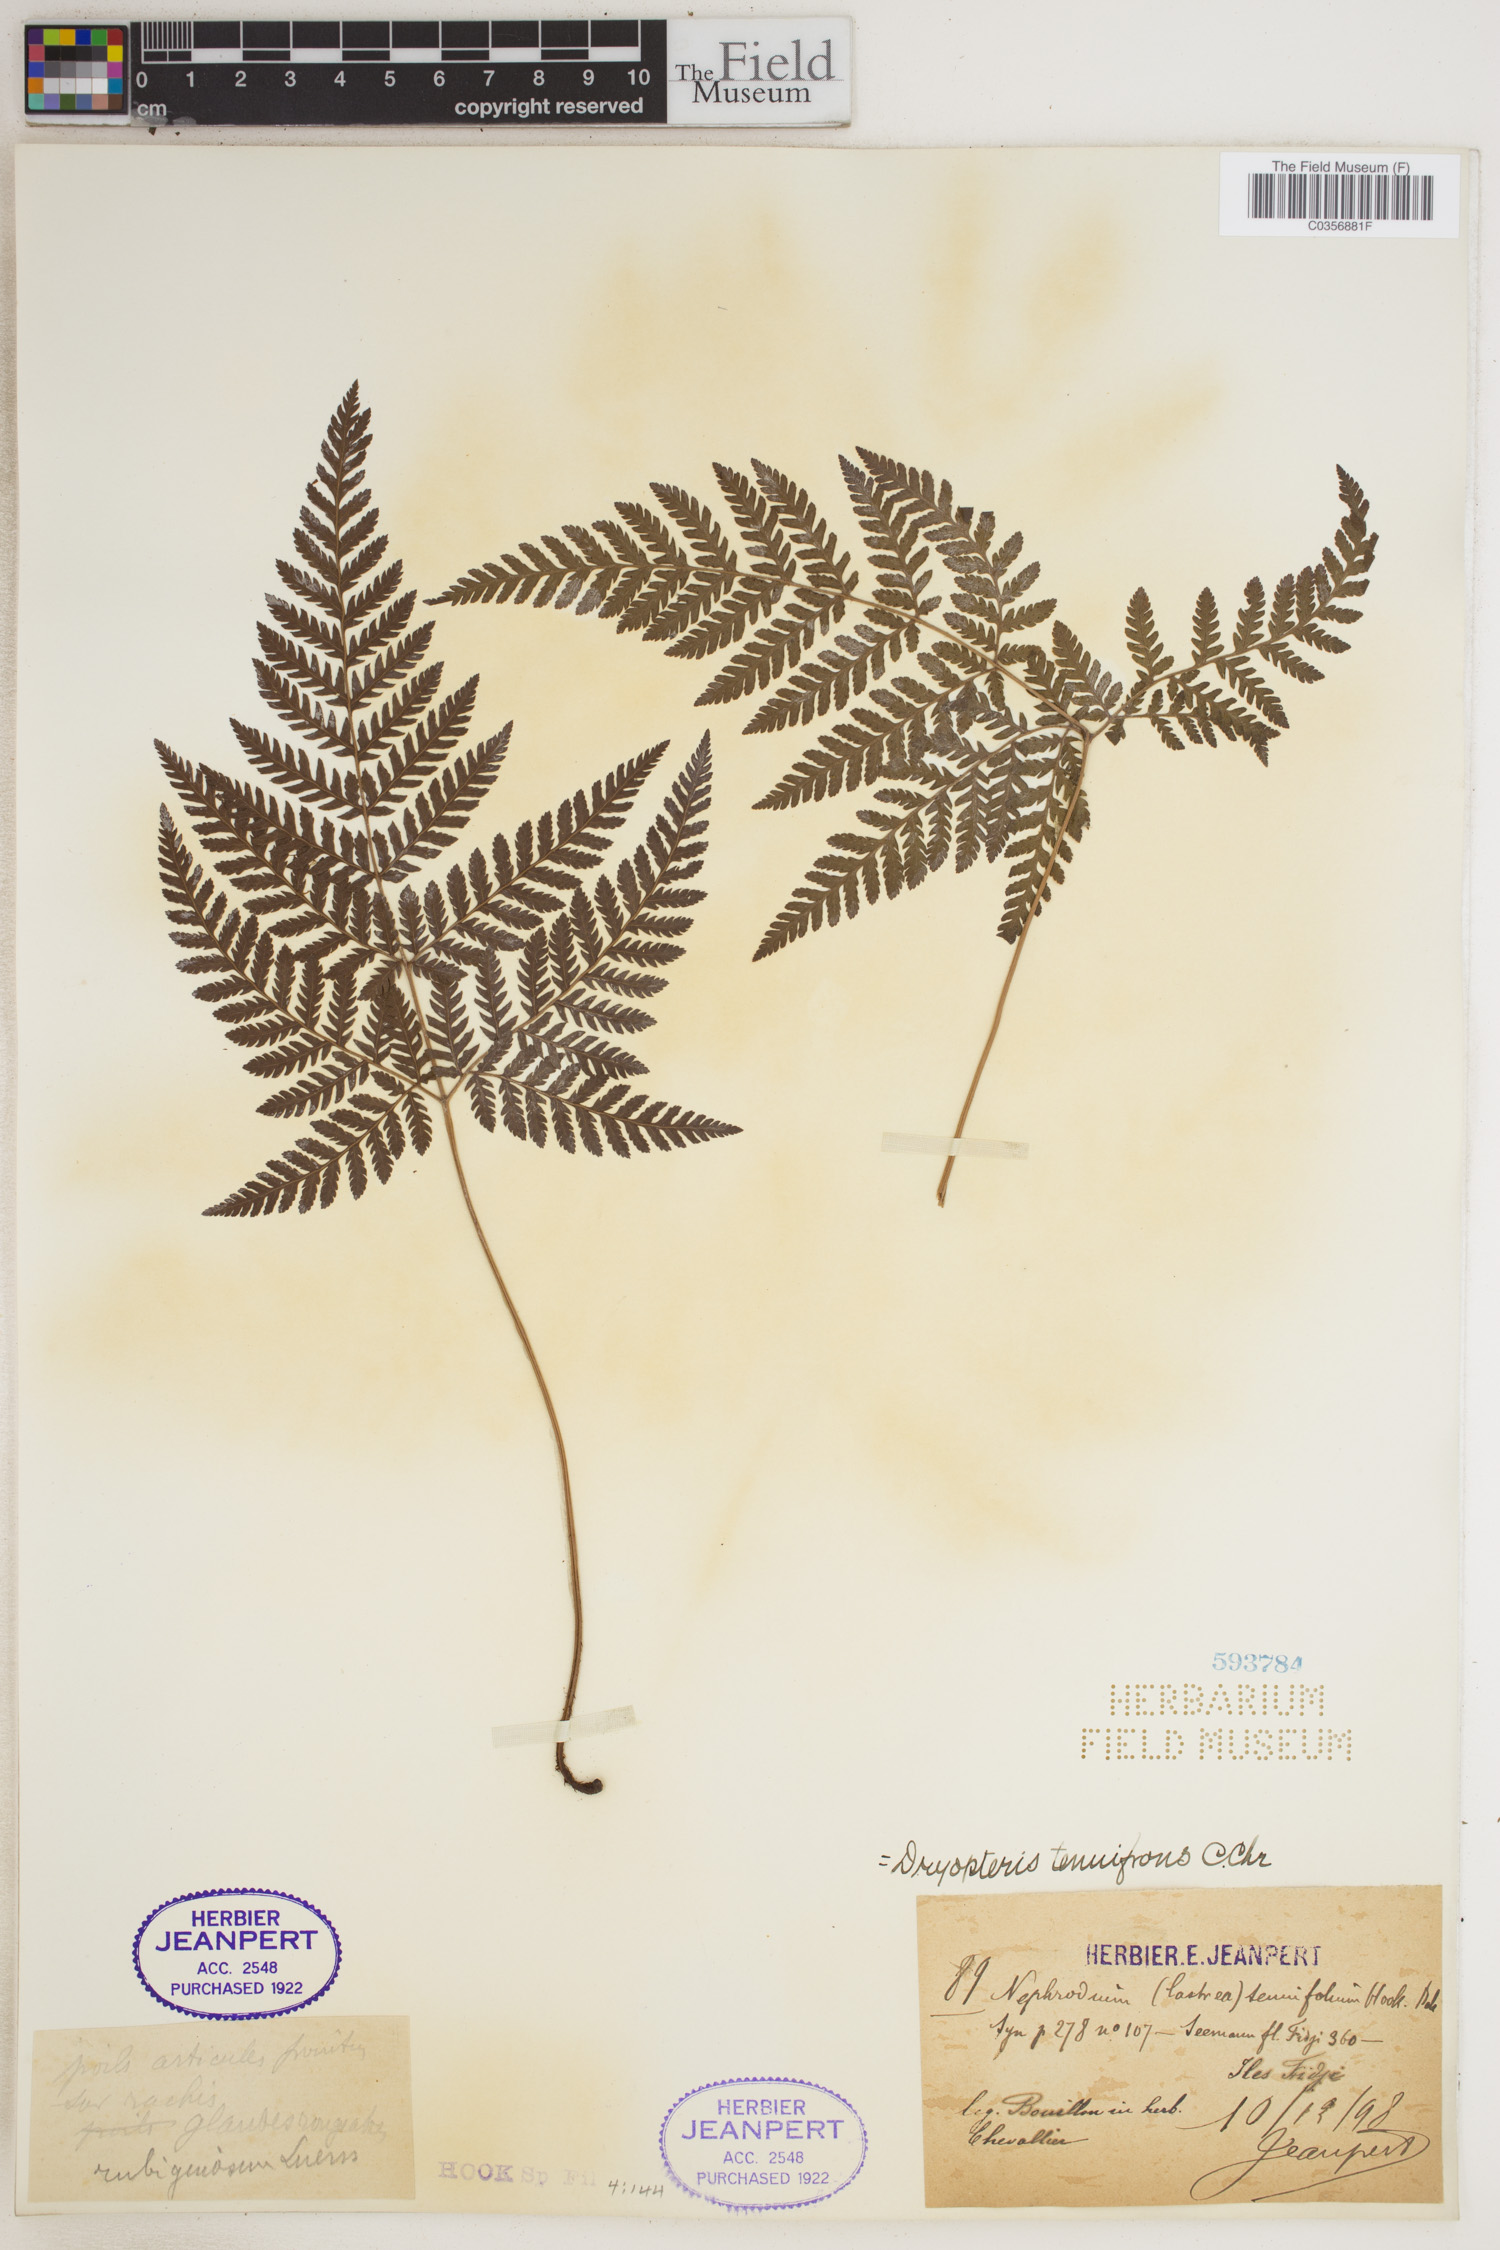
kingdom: Plantae
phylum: Tracheophyta
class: Polypodiopsida
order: Polypodiales
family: Dryopteridaceae
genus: Dryopteris
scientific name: Dryopteris tenuifrons
